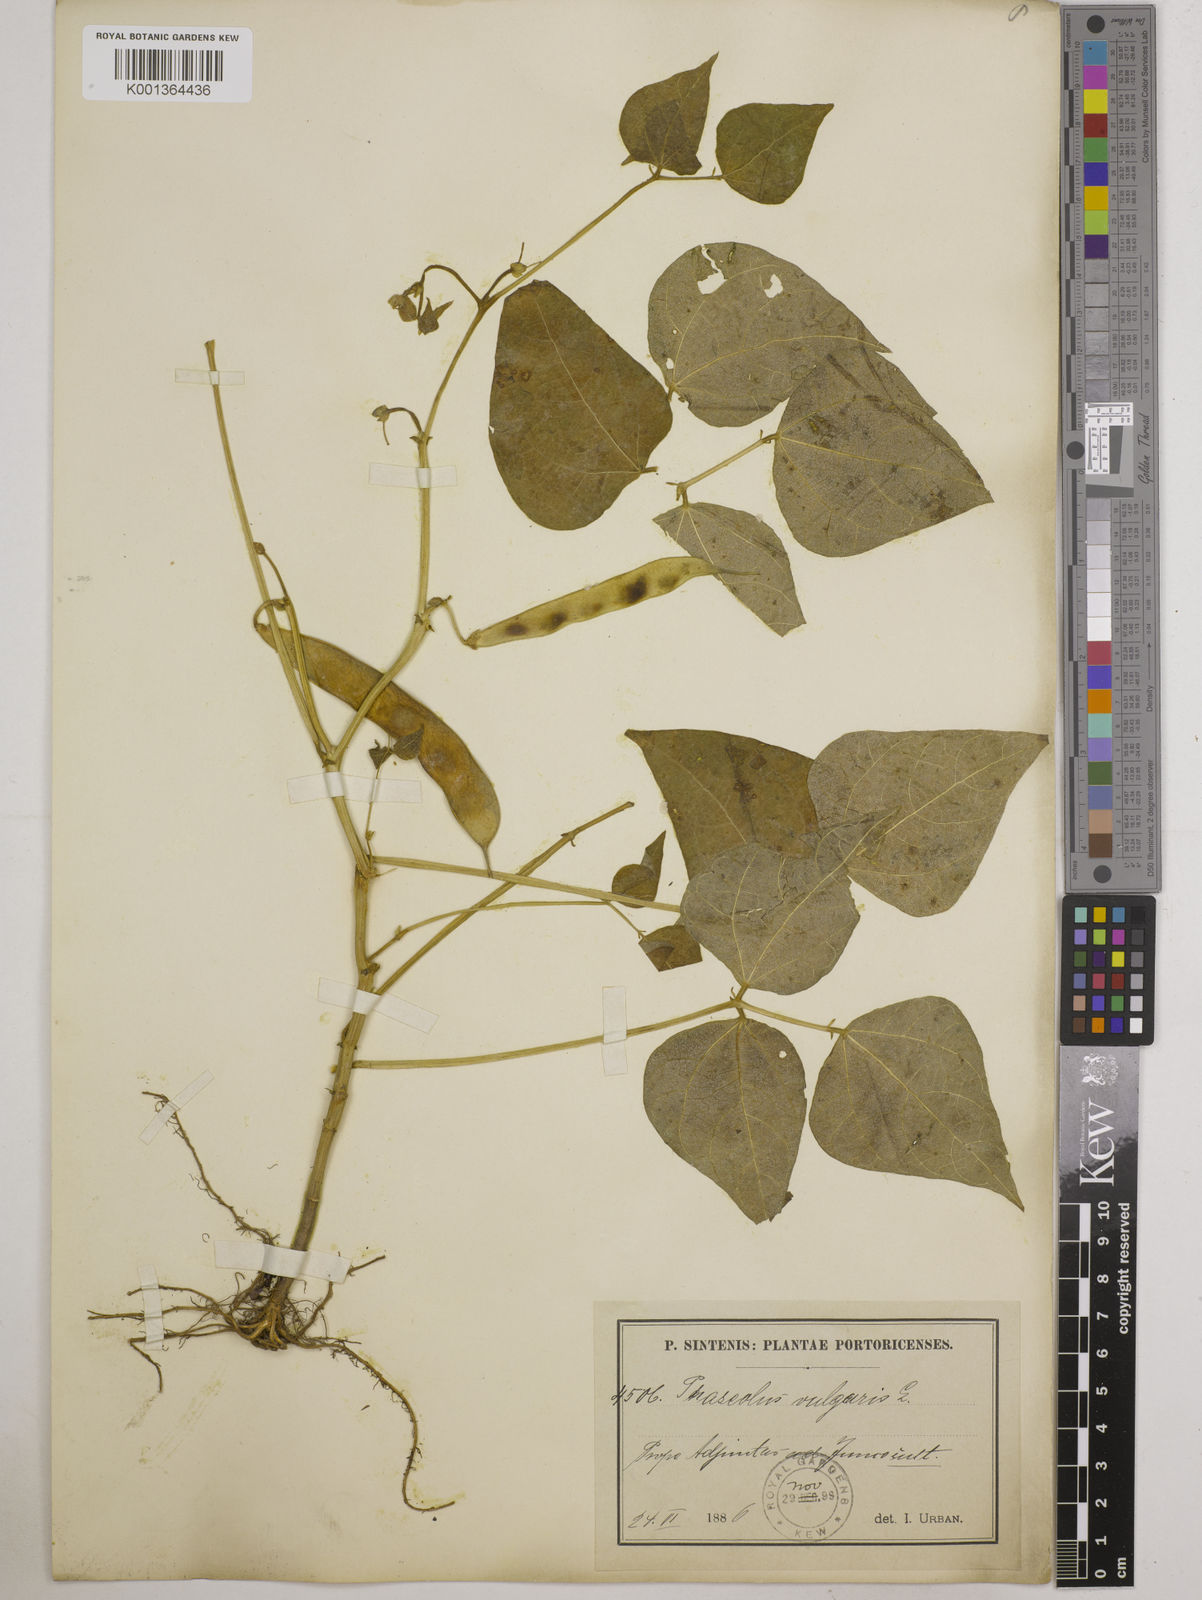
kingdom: Plantae
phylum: Tracheophyta
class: Magnoliopsida
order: Fabales
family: Fabaceae
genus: Phaseolus
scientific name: Phaseolus vulgaris
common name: Bean
